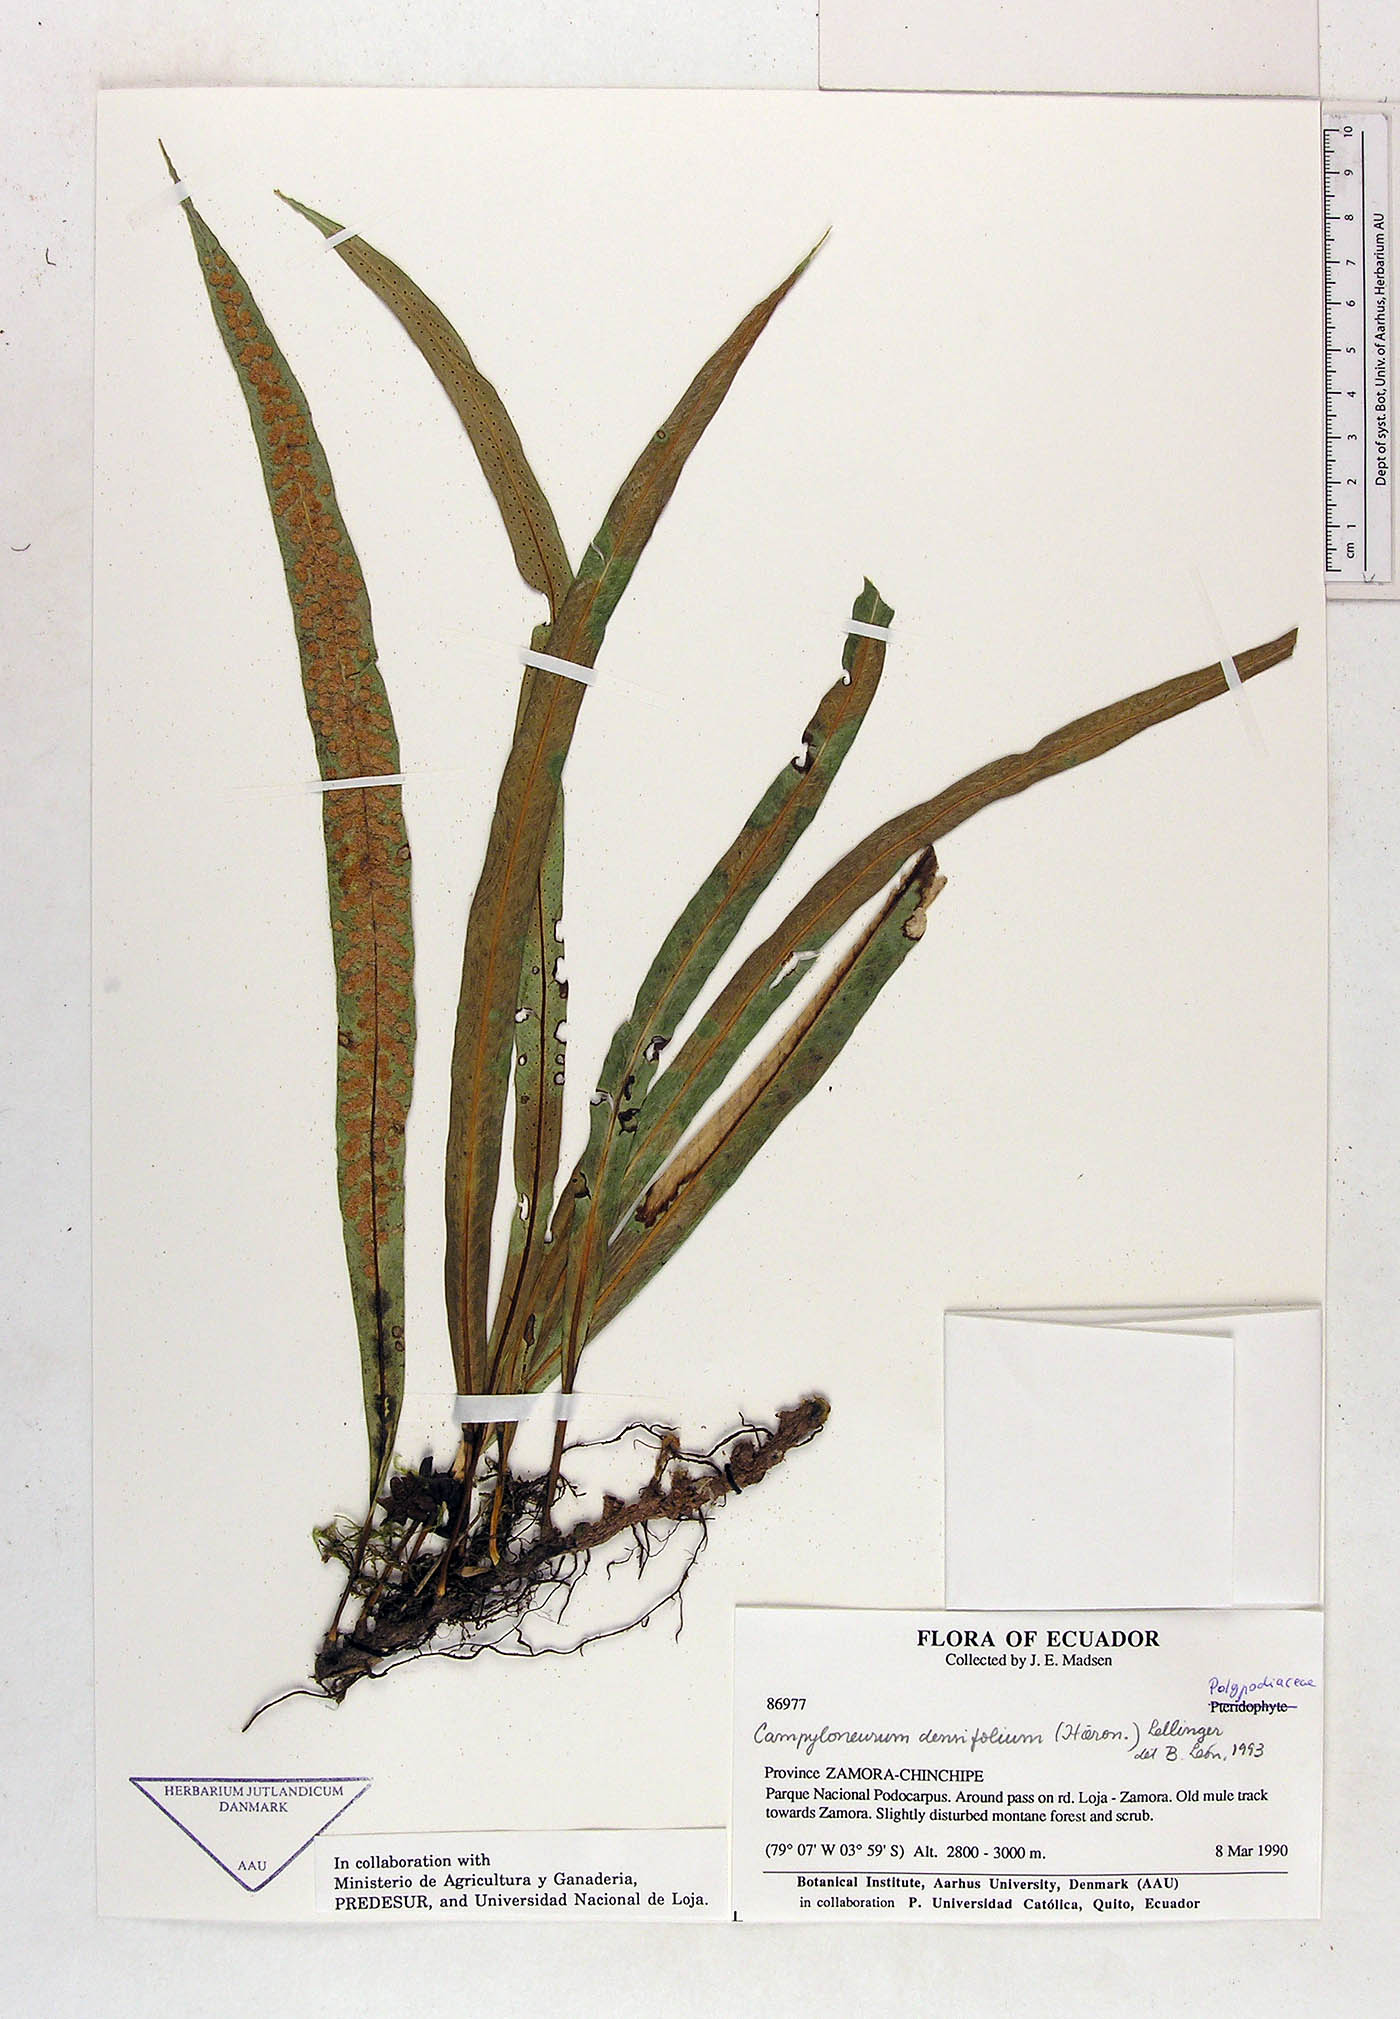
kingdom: Plantae
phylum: Tracheophyta
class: Polypodiopsida
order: Polypodiales
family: Polypodiaceae
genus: Campyloneurum
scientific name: Campyloneurum densifolium
